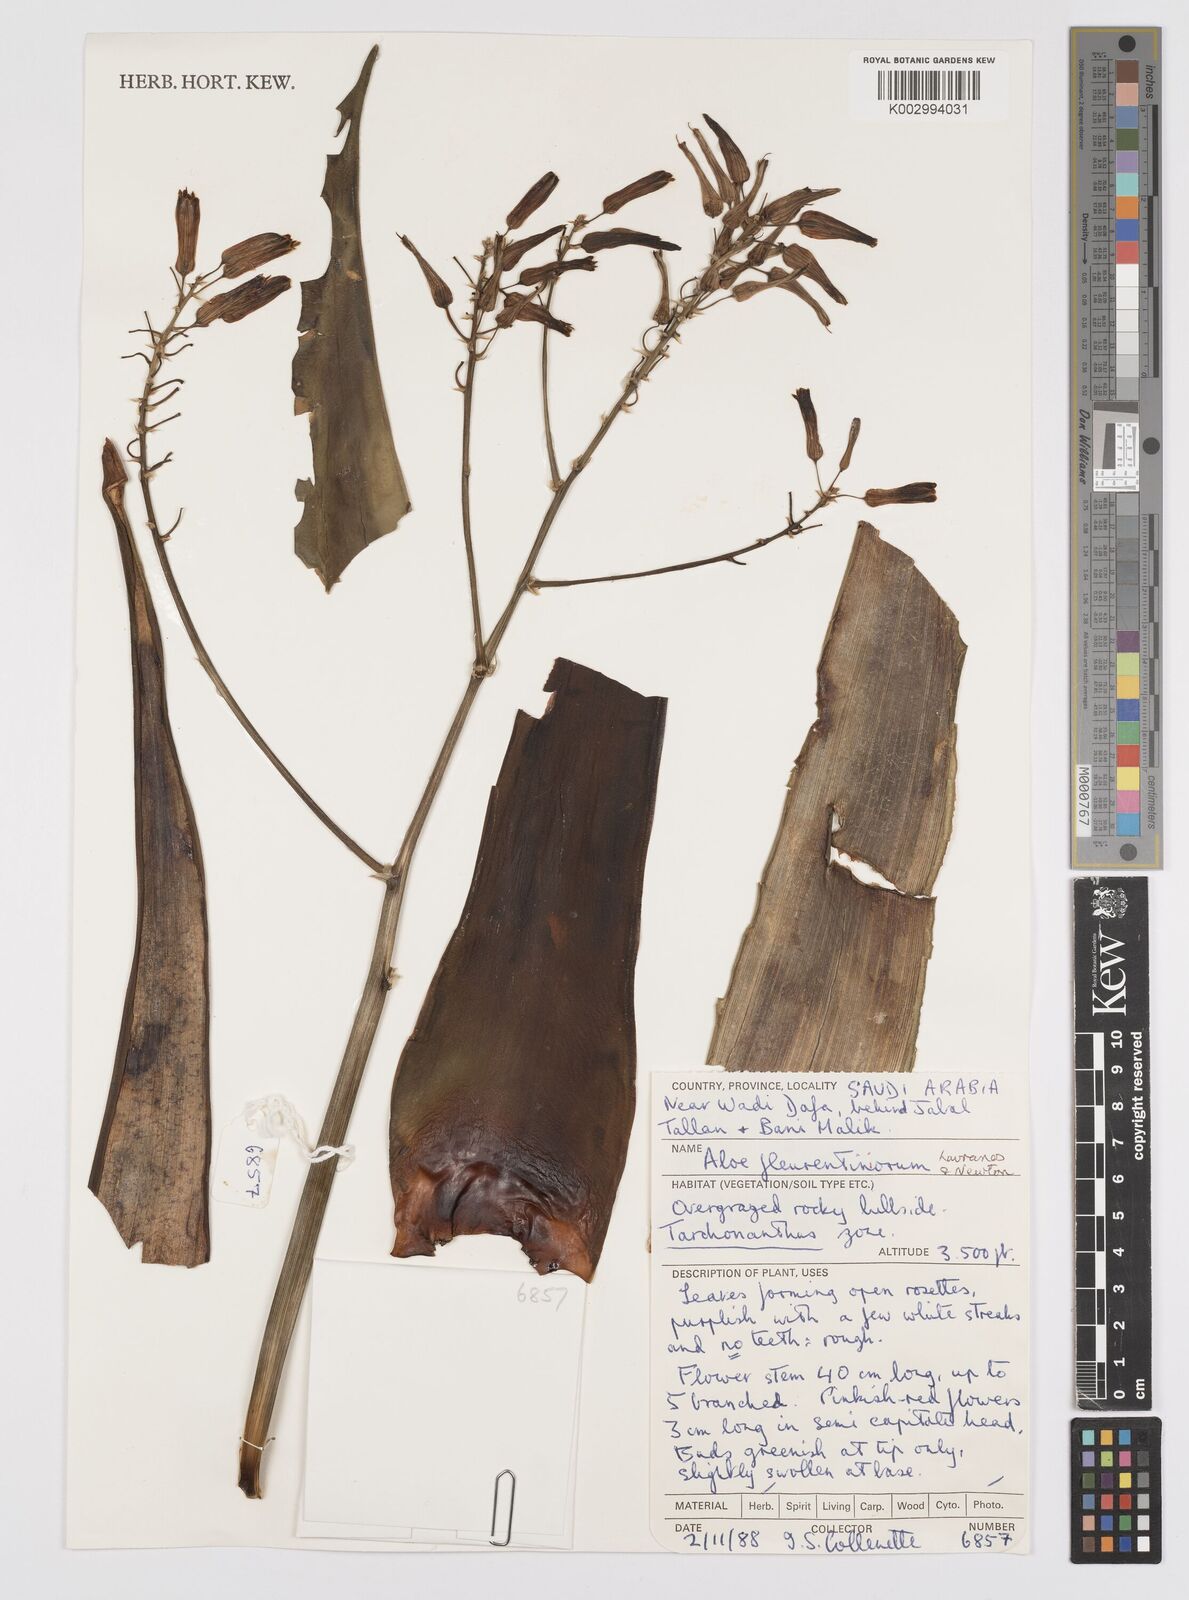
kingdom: Plantae
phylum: Tracheophyta
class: Liliopsida
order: Asparagales
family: Asphodelaceae
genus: Aloe
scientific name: Aloe fleurentiniorum
